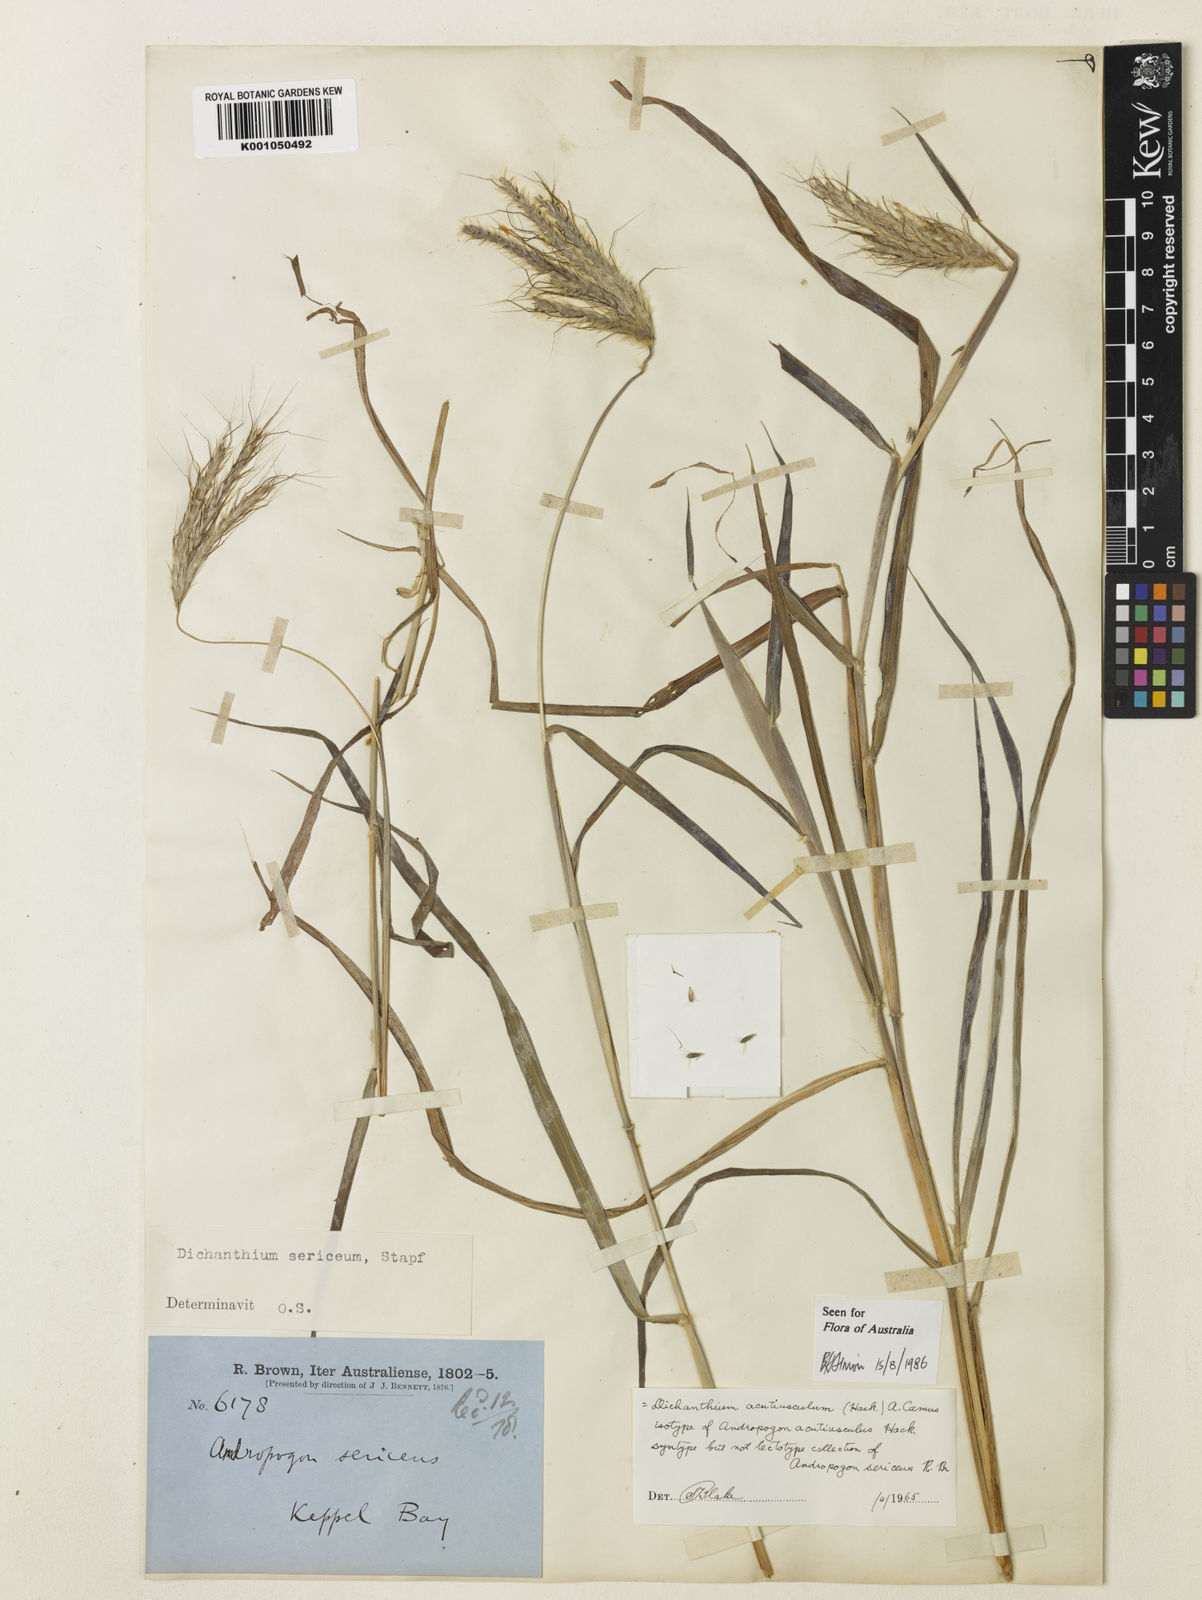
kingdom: Plantae
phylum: Tracheophyta
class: Liliopsida
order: Poales
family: Poaceae
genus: Dichanthium
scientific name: Dichanthium sericeum
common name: Silky bluestem
